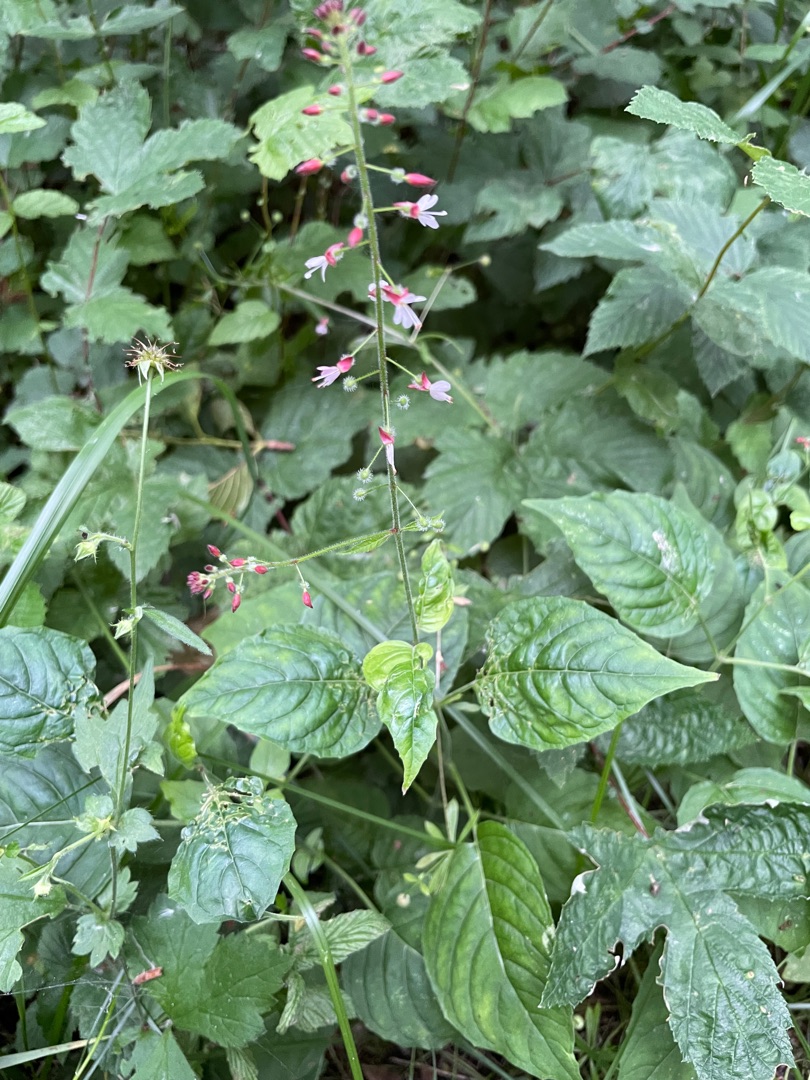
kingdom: Plantae
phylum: Tracheophyta
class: Magnoliopsida
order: Myrtales
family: Onagraceae
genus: Circaea
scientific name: Circaea lutetiana
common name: Dunet steffensurt
